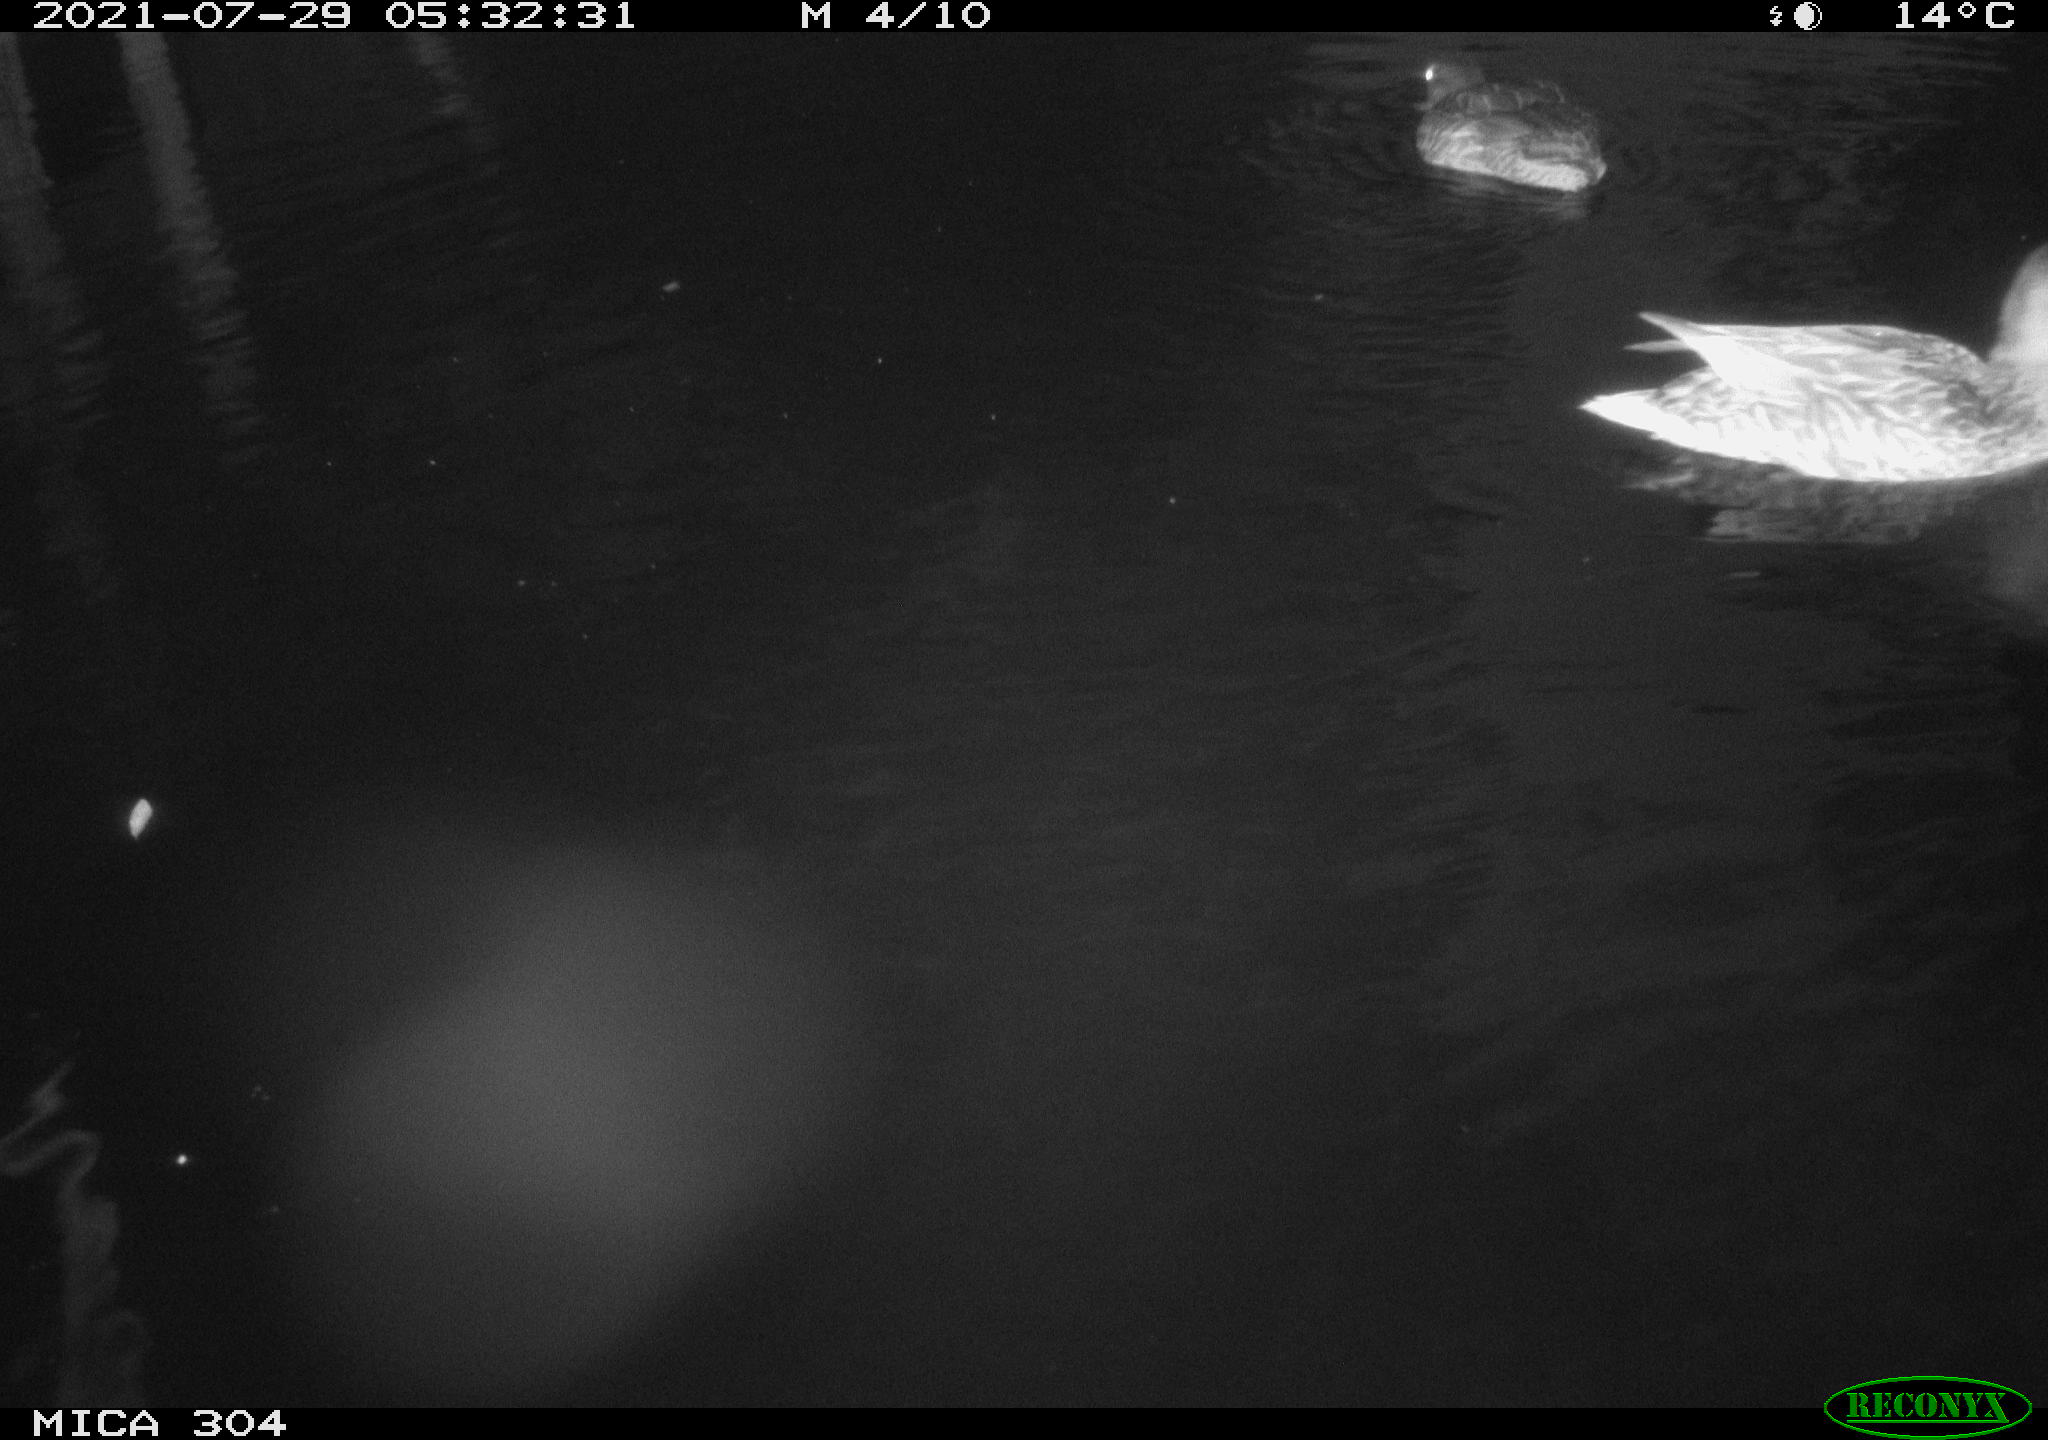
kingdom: Animalia
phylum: Chordata
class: Aves
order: Anseriformes
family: Anatidae
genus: Mareca
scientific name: Mareca strepera
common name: Gadwall
